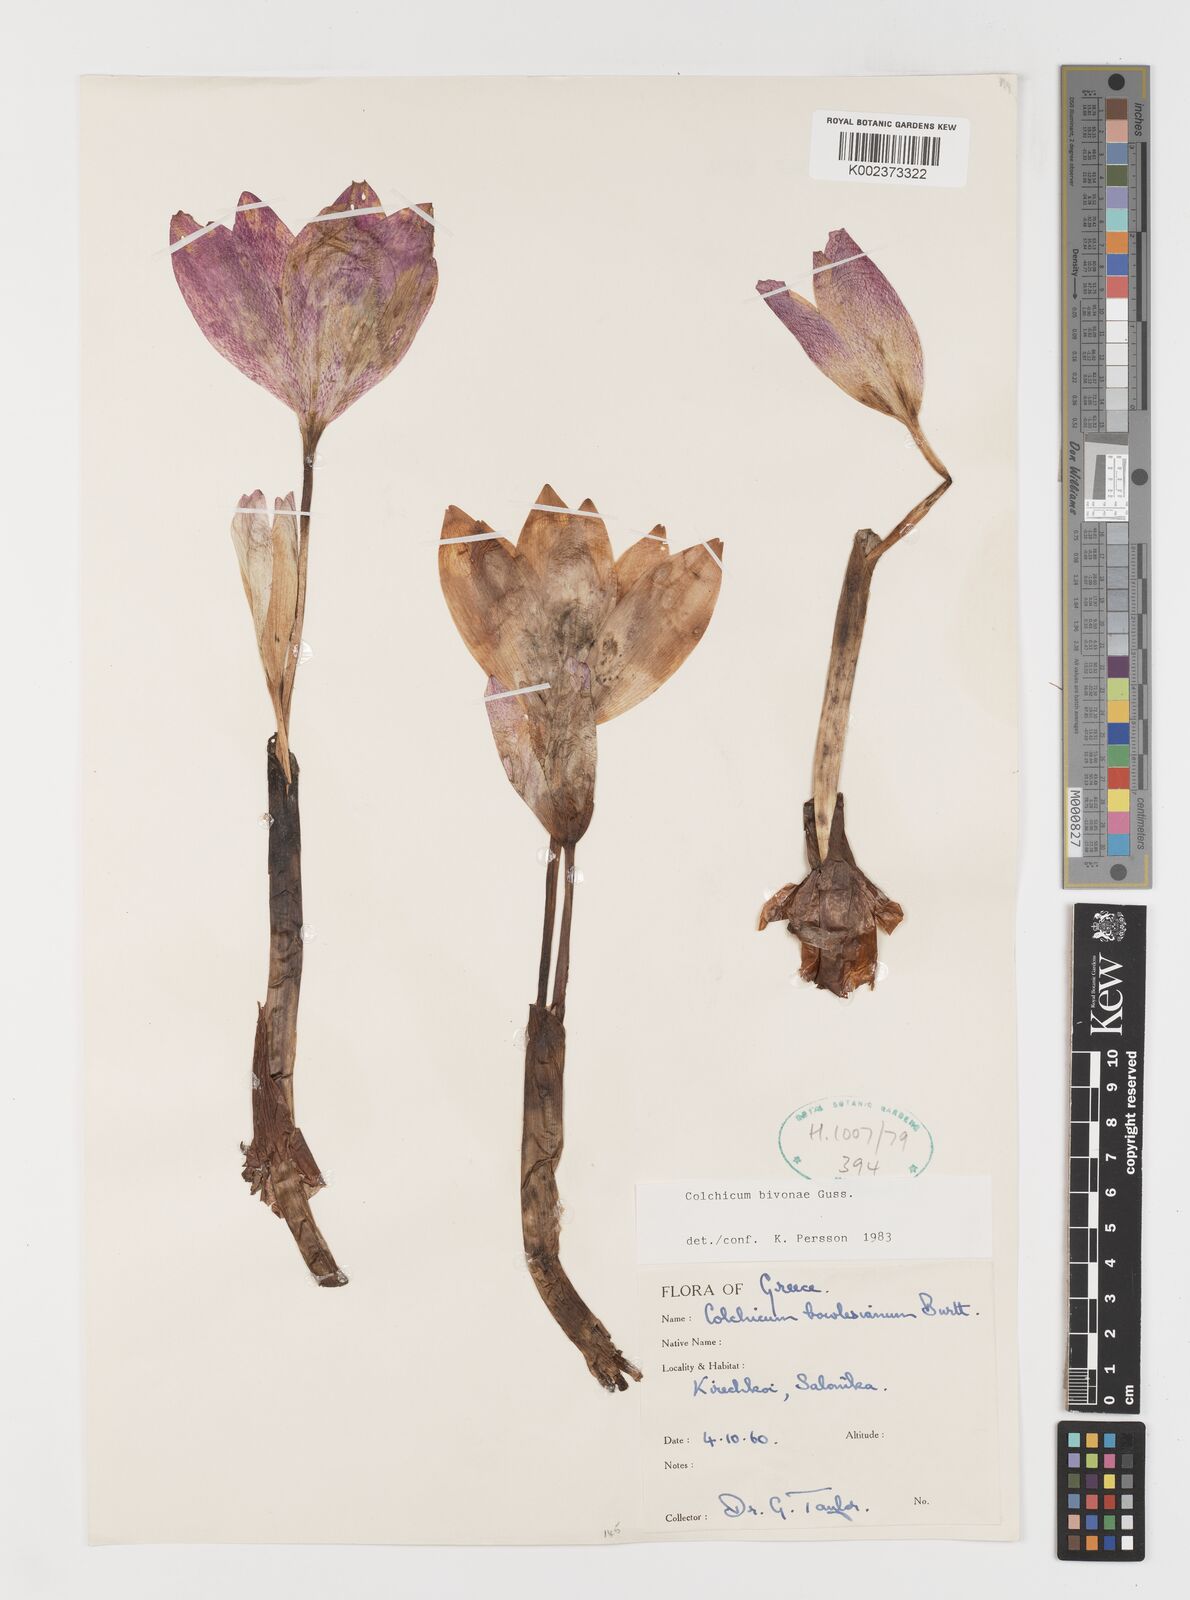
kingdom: Plantae
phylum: Tracheophyta
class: Liliopsida
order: Liliales
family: Colchicaceae
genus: Colchicum
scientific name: Colchicum bivonae
